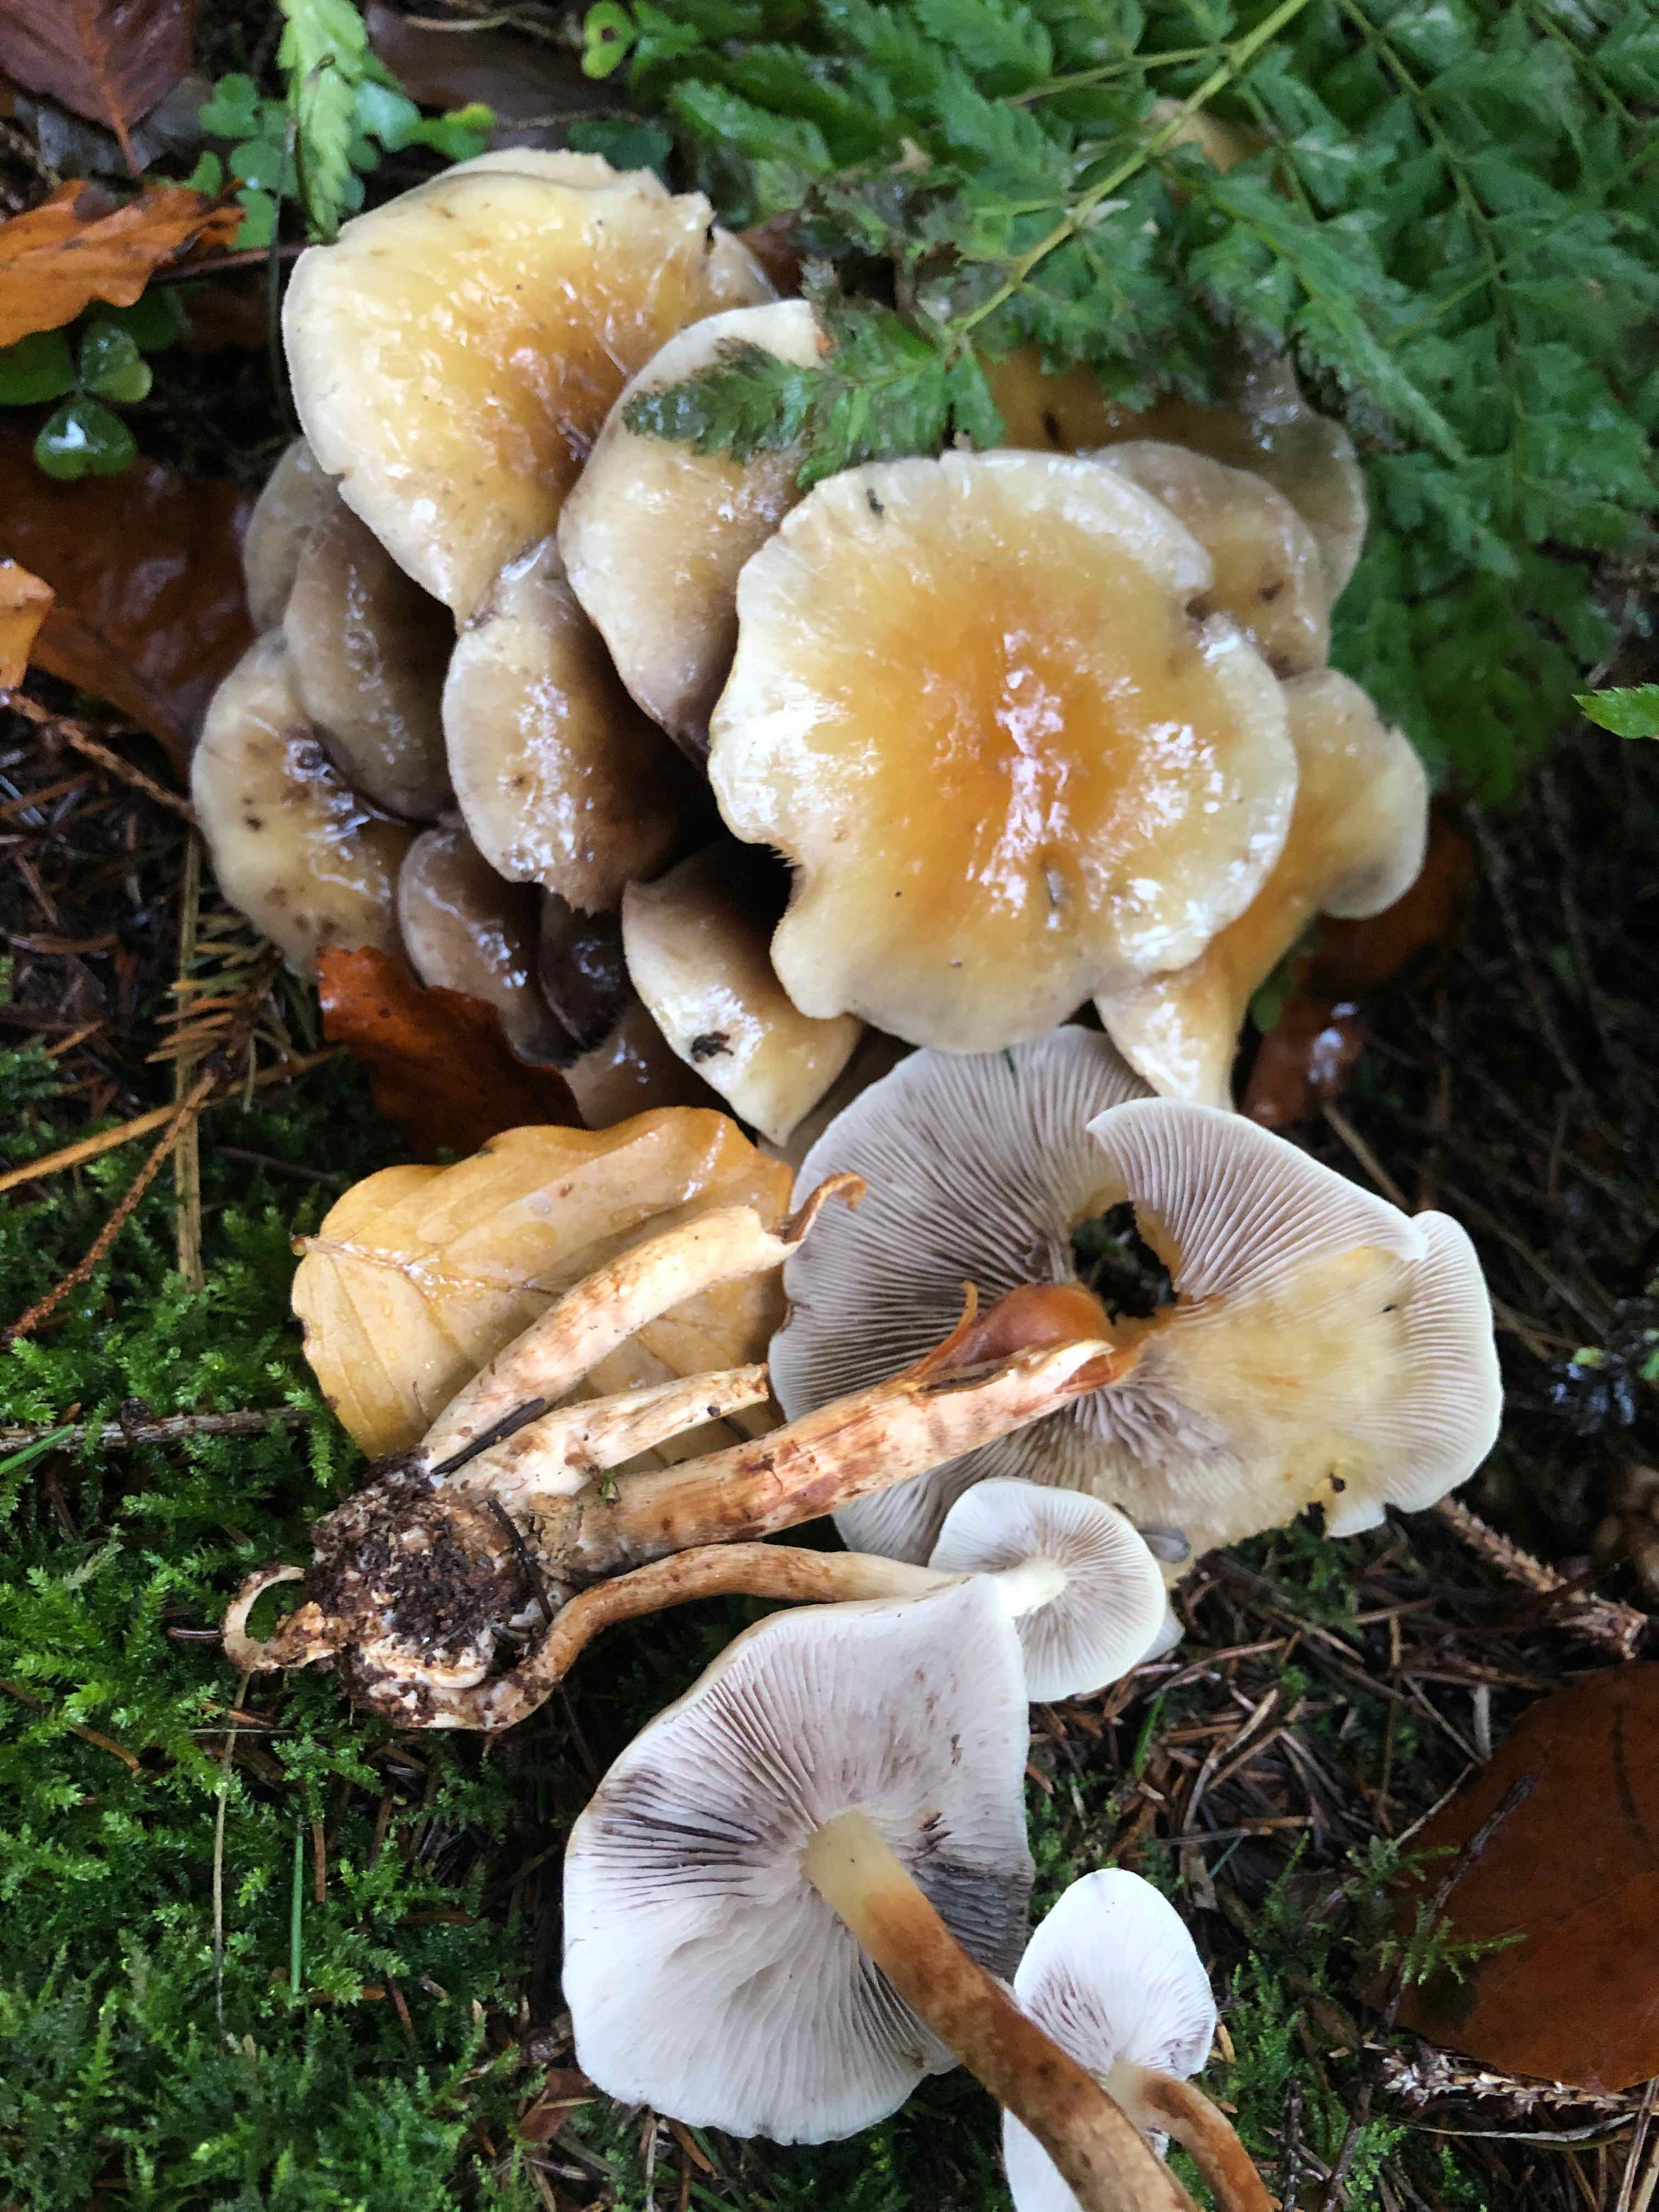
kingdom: Fungi
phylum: Basidiomycota
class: Agaricomycetes
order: Agaricales
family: Strophariaceae
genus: Hypholoma
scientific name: Hypholoma capnoides
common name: gran-svovlhat
